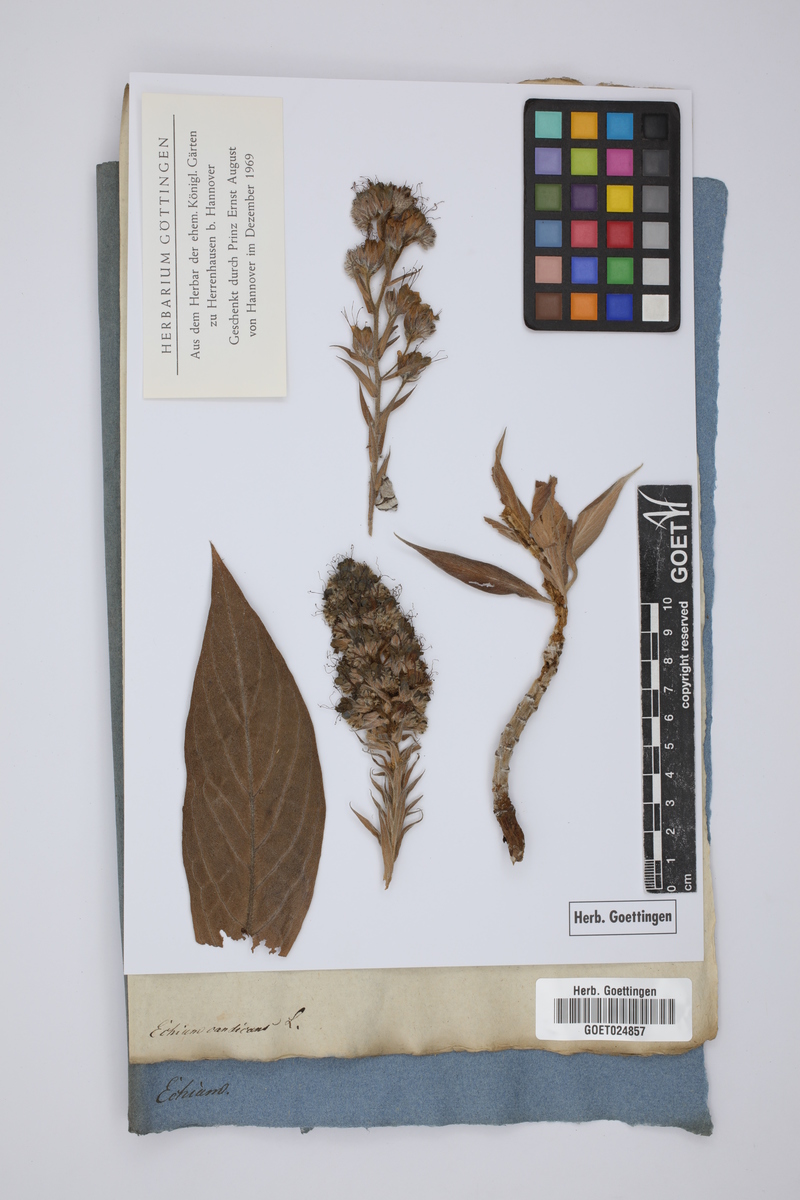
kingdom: Plantae
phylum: Tracheophyta
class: Magnoliopsida
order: Boraginales
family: Boraginaceae
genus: Echium
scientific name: Echium candicans
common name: Pride of madeira
